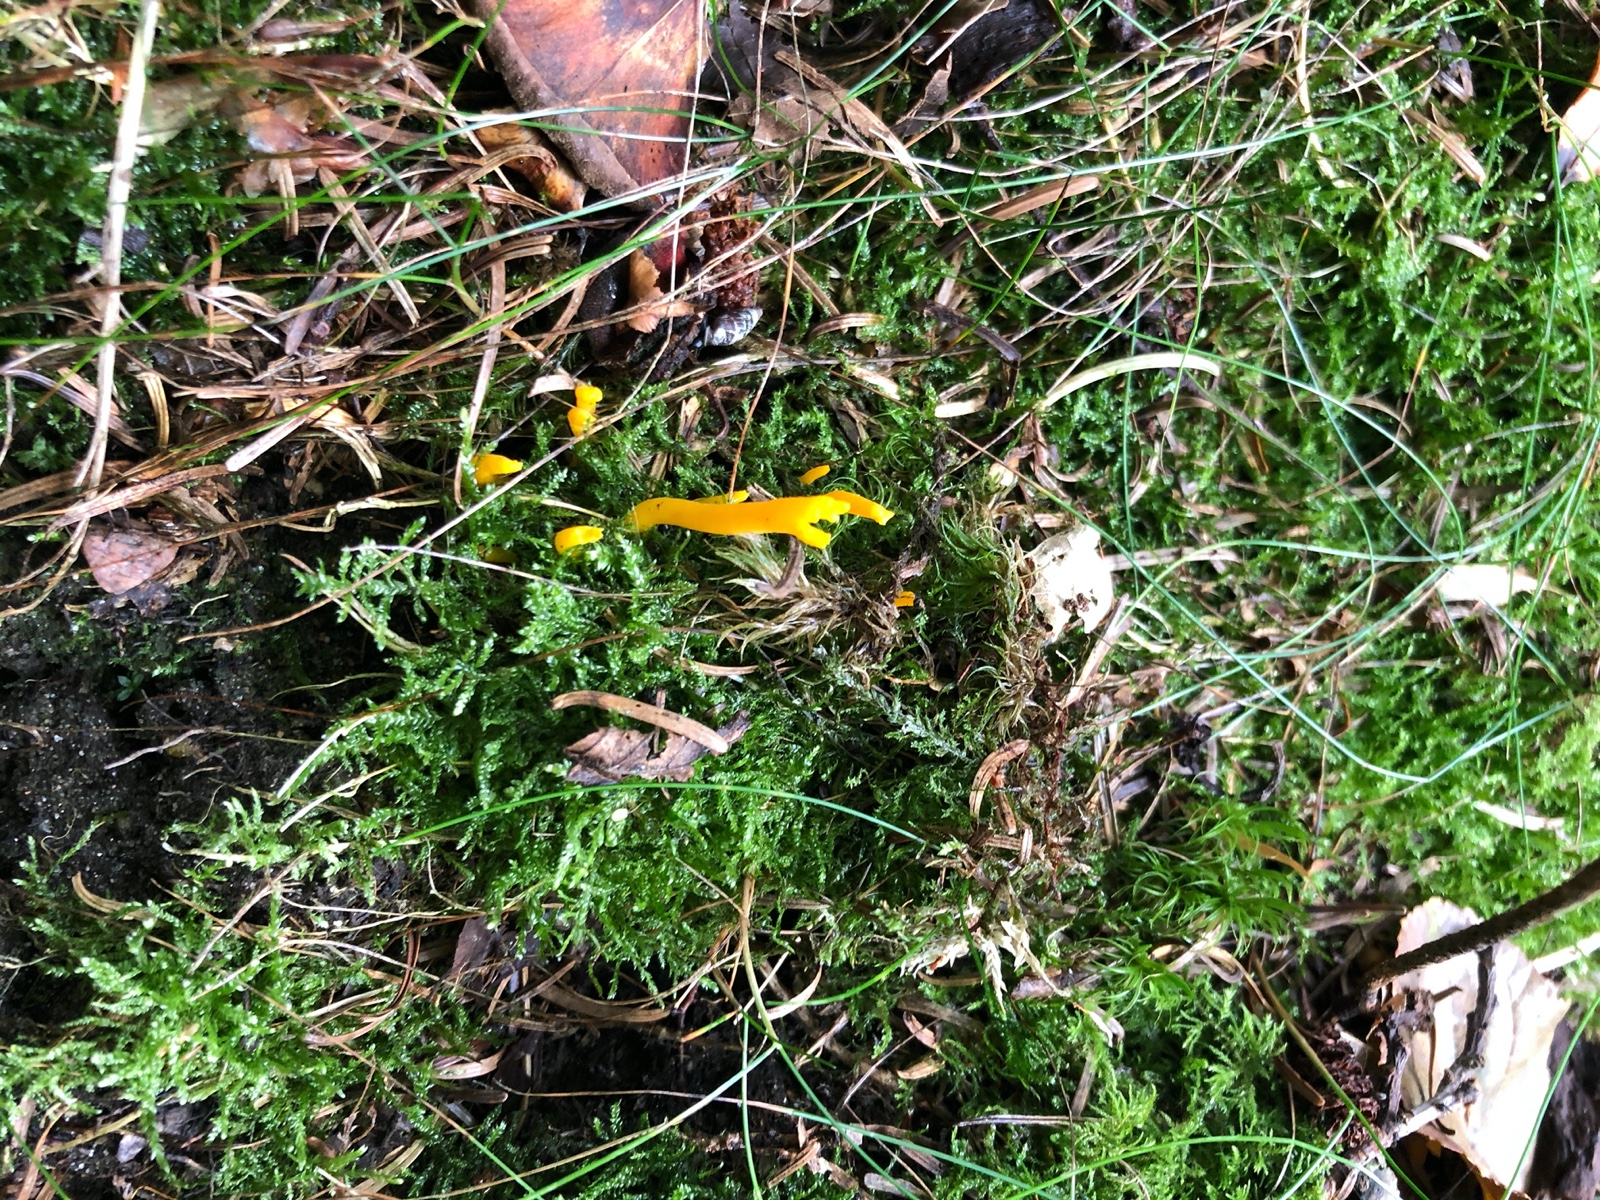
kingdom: Fungi
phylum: Basidiomycota
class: Dacrymycetes
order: Dacrymycetales
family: Dacrymycetaceae
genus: Calocera
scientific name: Calocera viscosa
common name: almindelig guldgaffel
